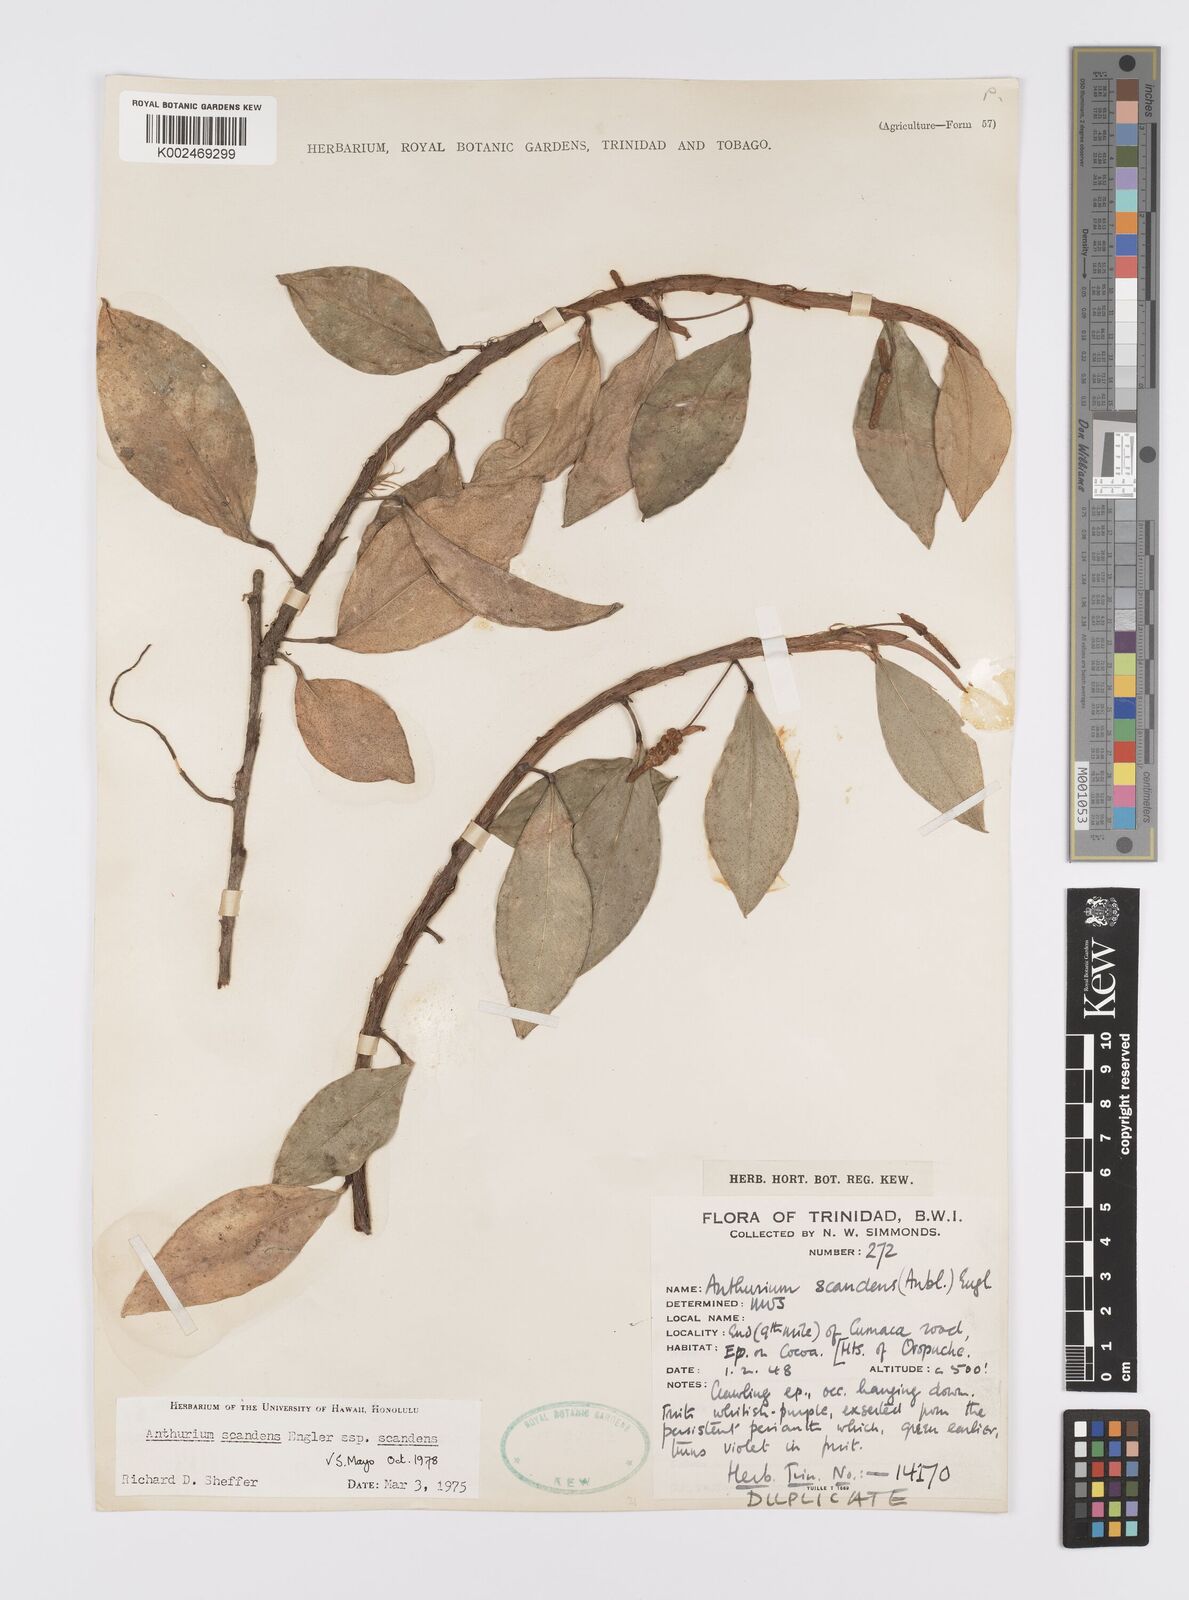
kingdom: Plantae
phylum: Tracheophyta
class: Liliopsida
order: Alismatales
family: Araceae
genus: Anthurium
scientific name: Anthurium scandens
